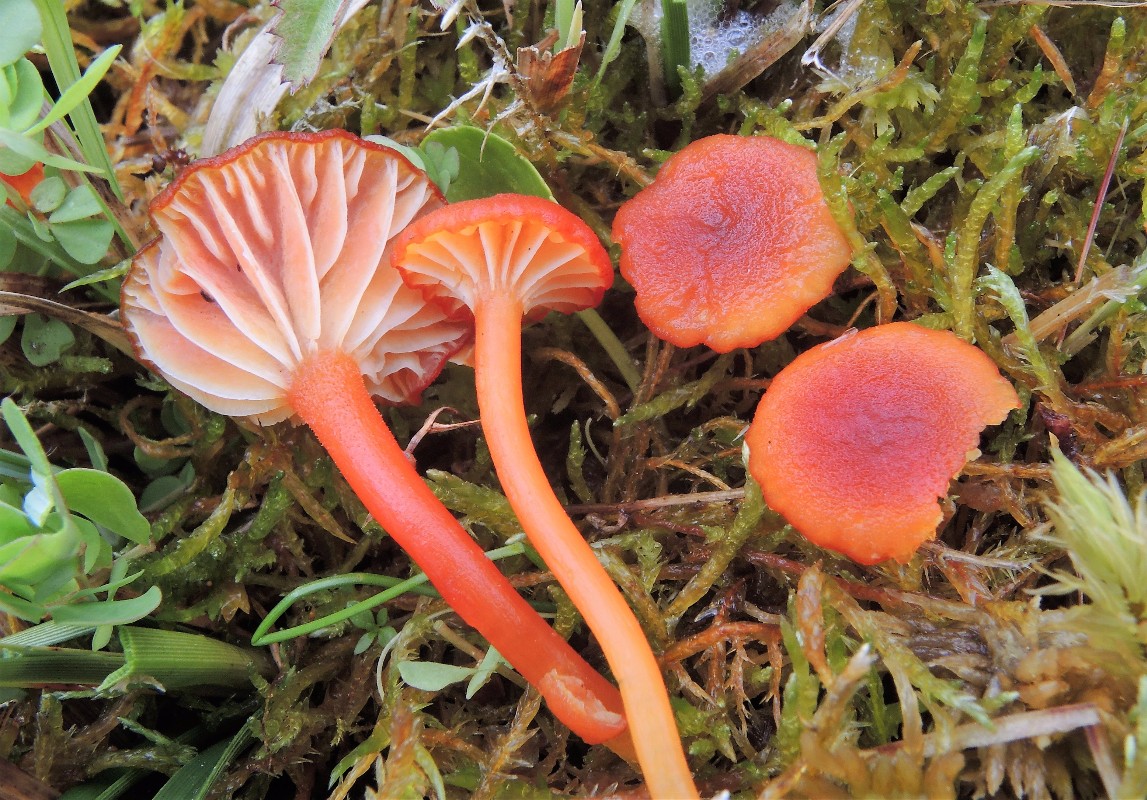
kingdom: Fungi
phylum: Basidiomycota
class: Agaricomycetes
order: Agaricales
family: Hygrophoraceae
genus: Hygrocybe
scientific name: Hygrocybe coccineocrenata
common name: tørvemos-vokshat
